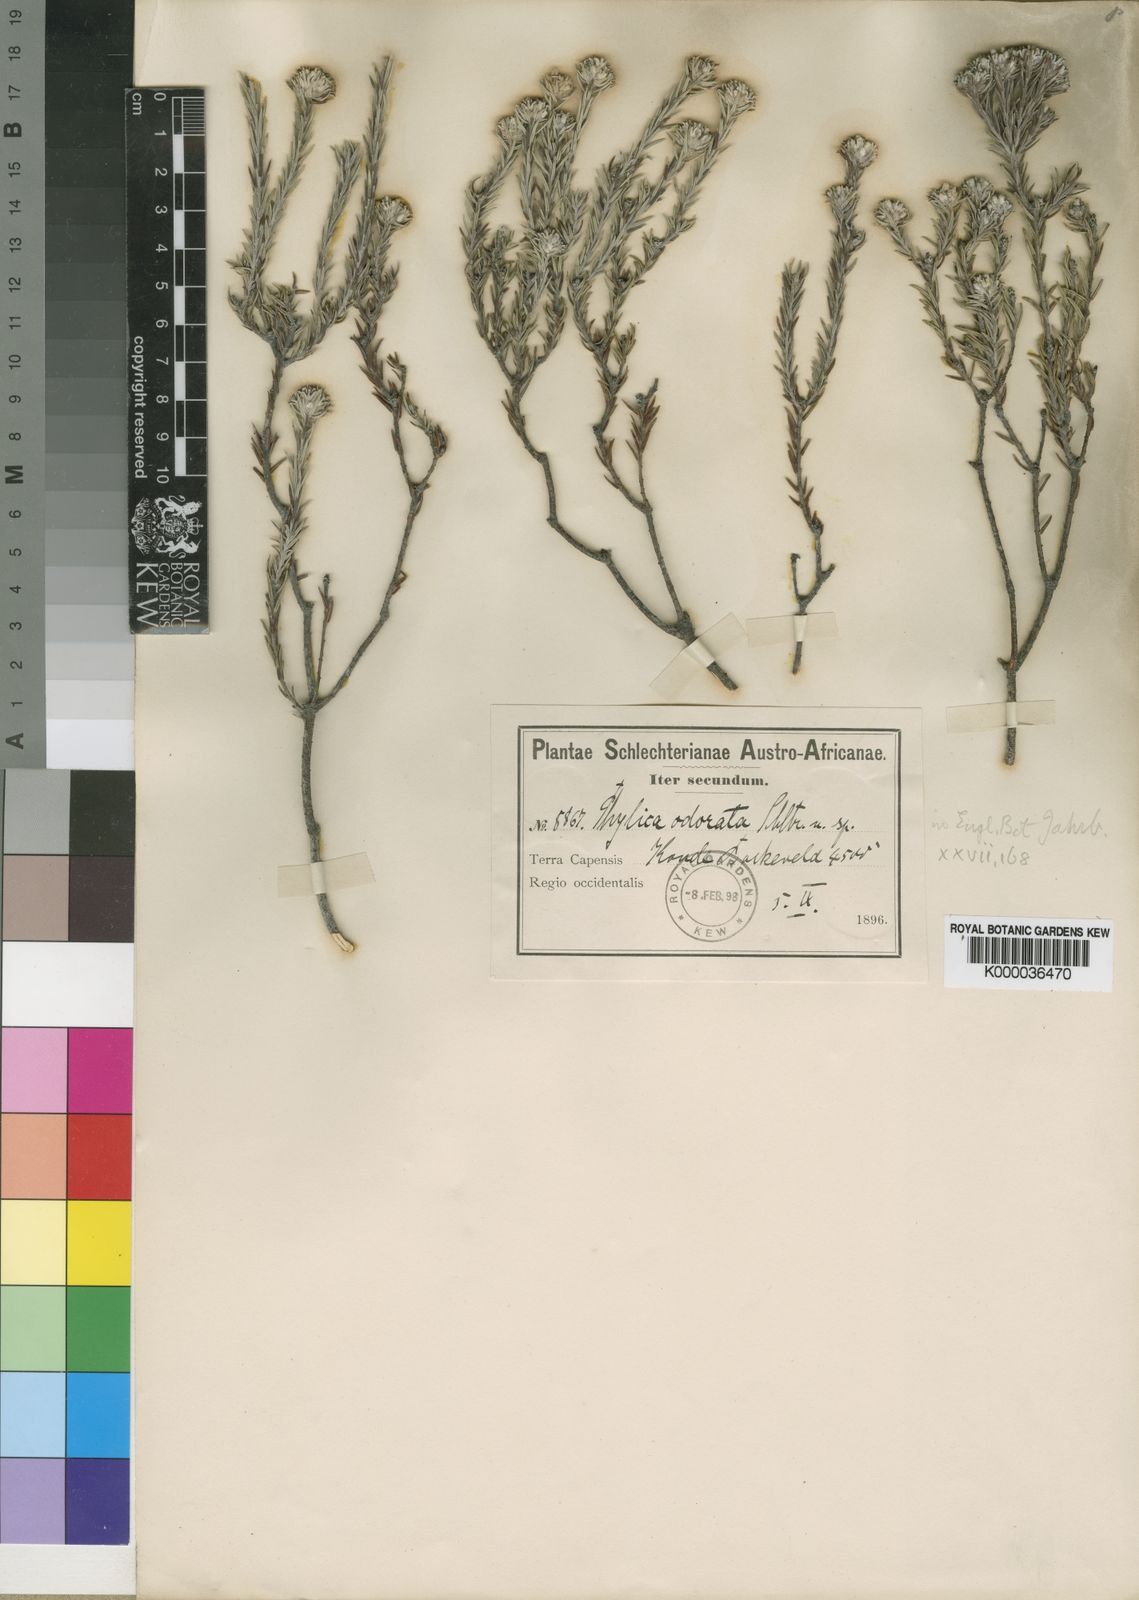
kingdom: Plantae
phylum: Tracheophyta
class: Magnoliopsida
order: Rosales
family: Rhamnaceae
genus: Phylica
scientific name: Phylica odorata
